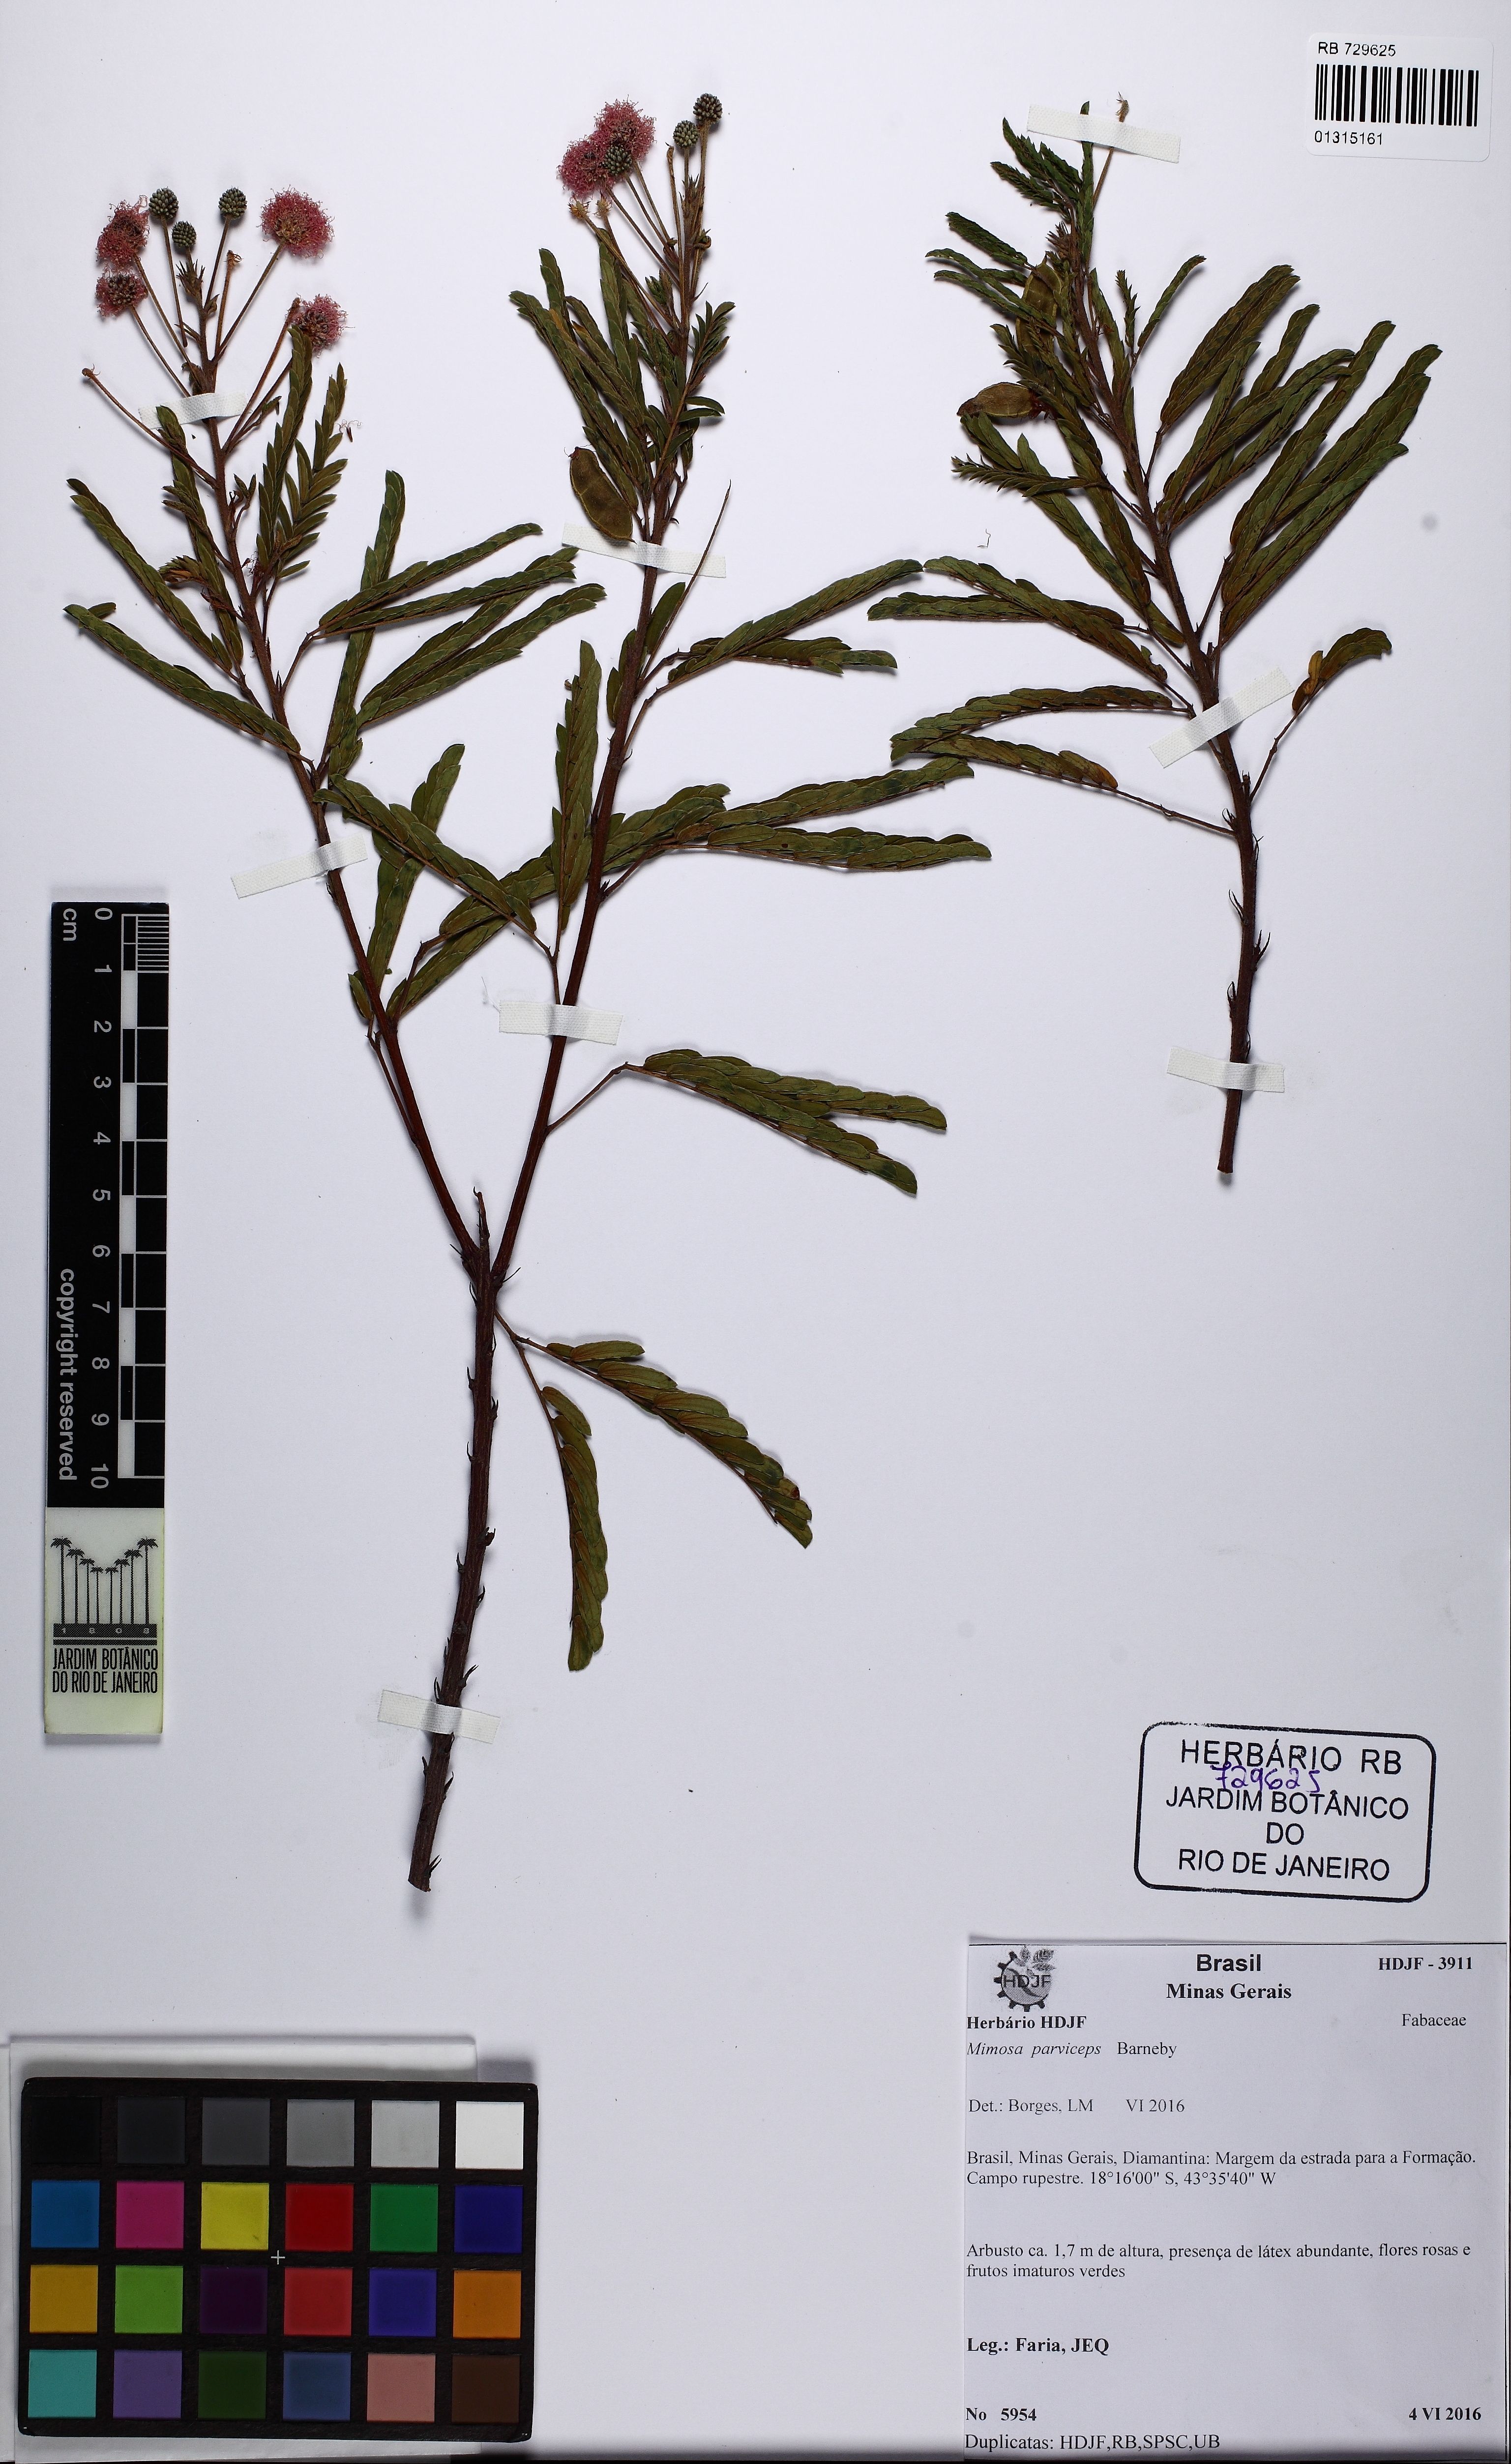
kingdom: Plantae
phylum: Tracheophyta
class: Magnoliopsida
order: Fabales
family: Fabaceae
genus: Mimosa
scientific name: Mimosa parviceps
